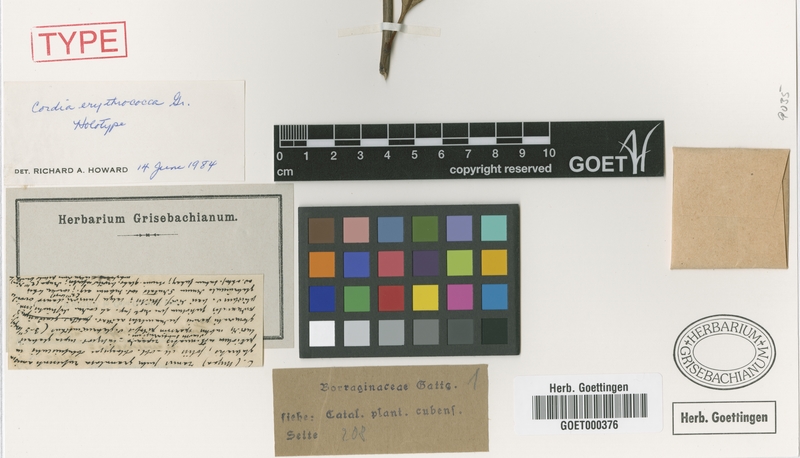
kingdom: Plantae
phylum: Tracheophyta
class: Magnoliopsida
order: Boraginales
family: Cordiaceae
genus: Varronia
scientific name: Varronia erythrococca
